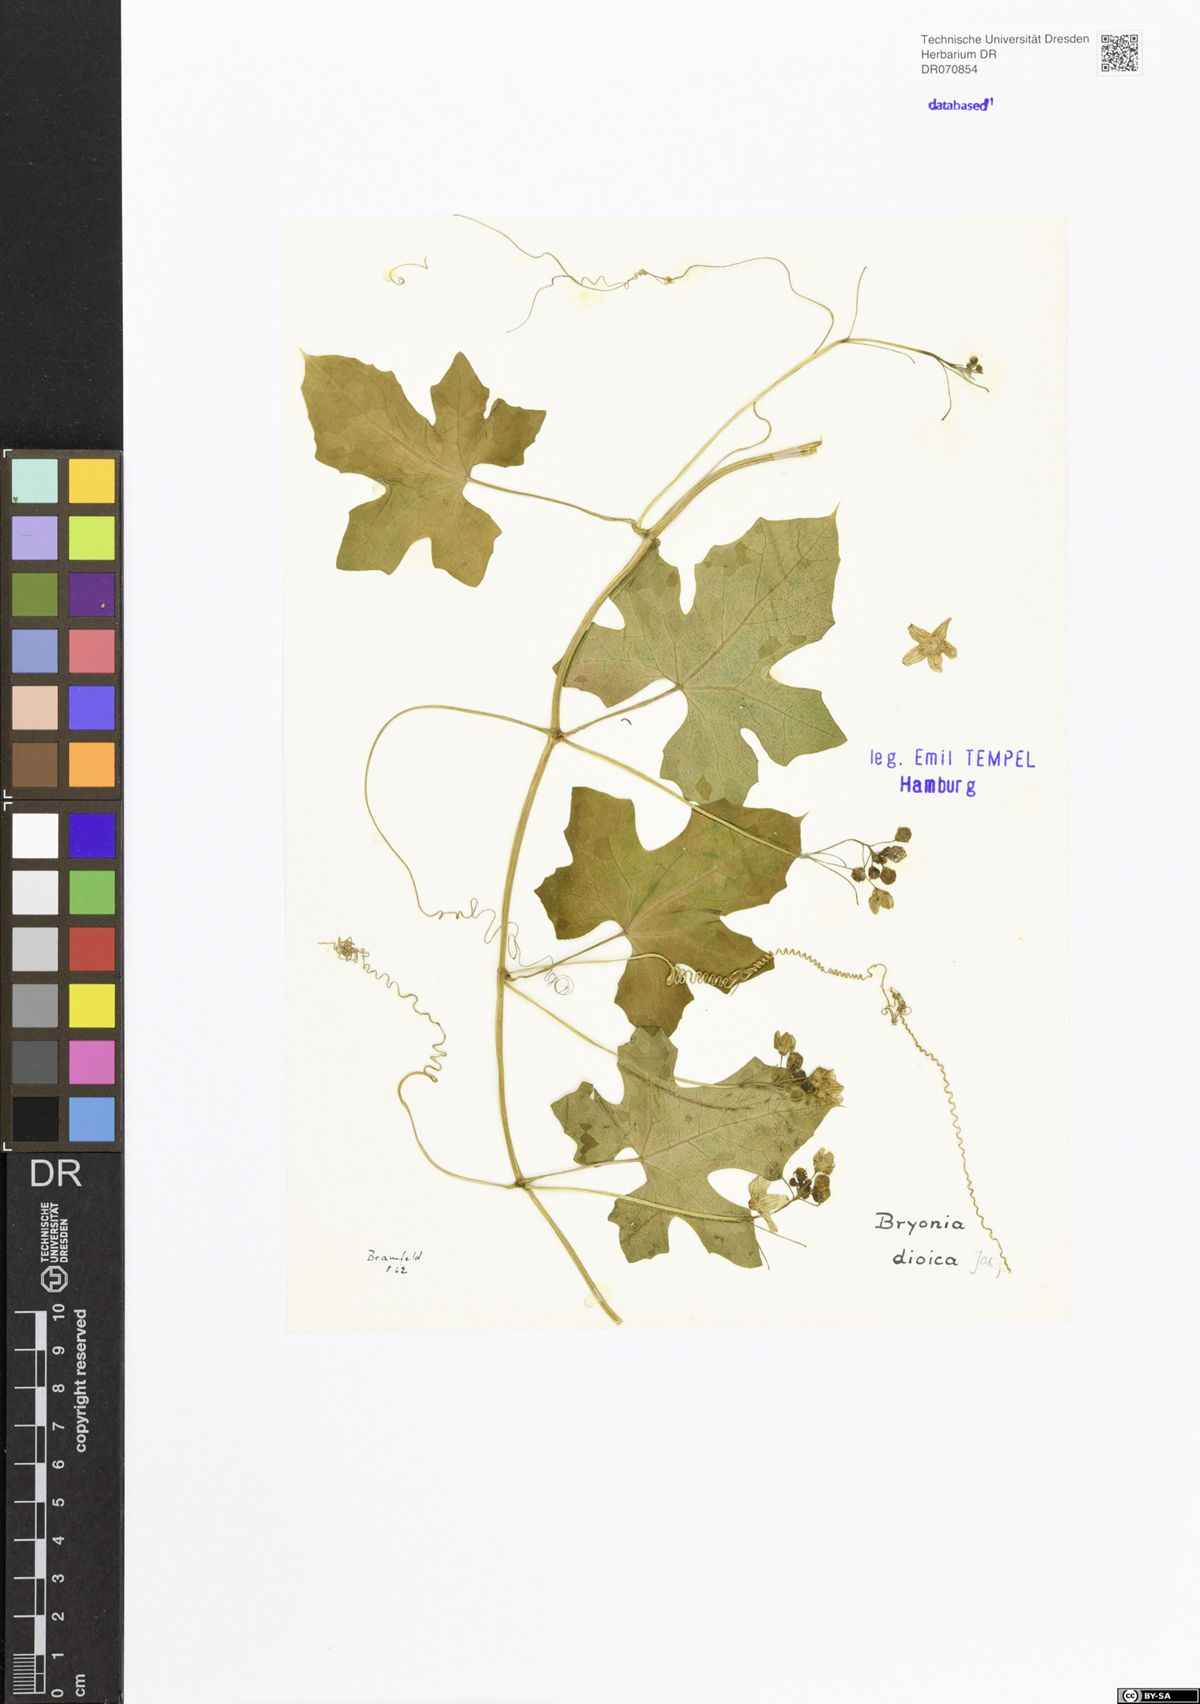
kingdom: Plantae
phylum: Tracheophyta
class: Magnoliopsida
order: Cucurbitales
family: Cucurbitaceae
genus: Bryonia
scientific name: Bryonia dioica
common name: White bryony
